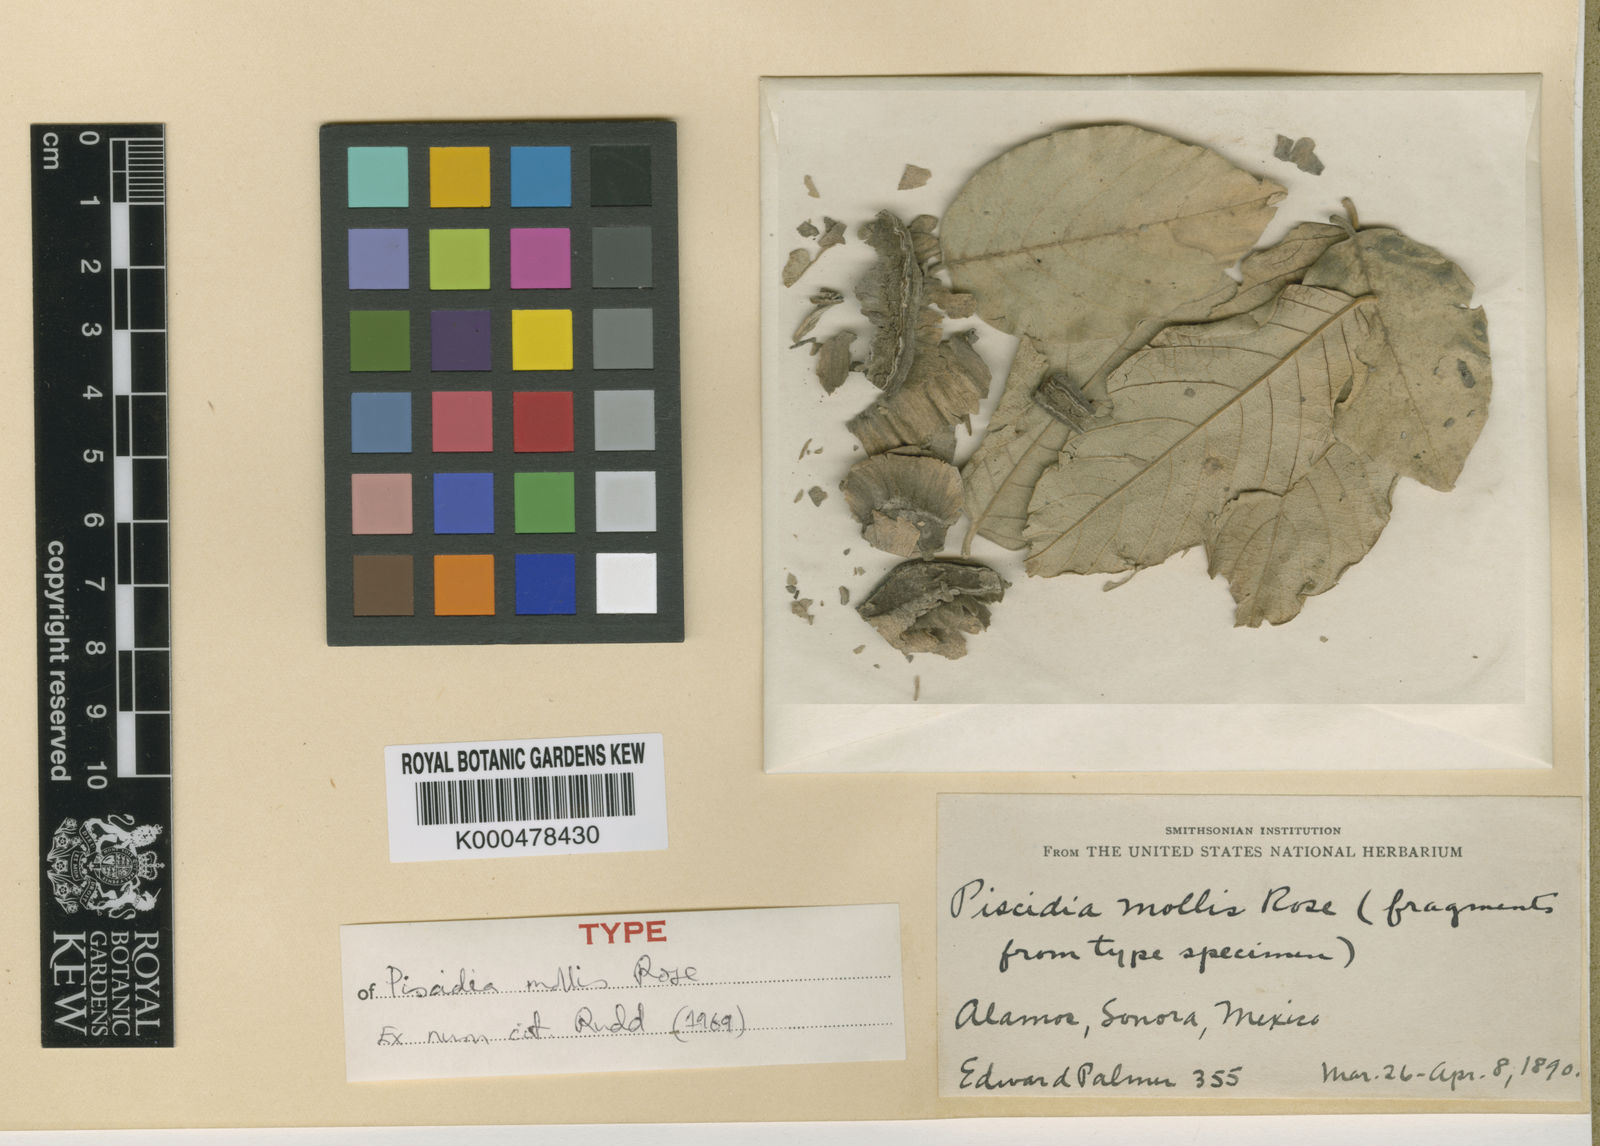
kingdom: Plantae
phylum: Tracheophyta
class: Magnoliopsida
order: Fabales
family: Fabaceae
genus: Piscidia
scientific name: Piscidia mollis
